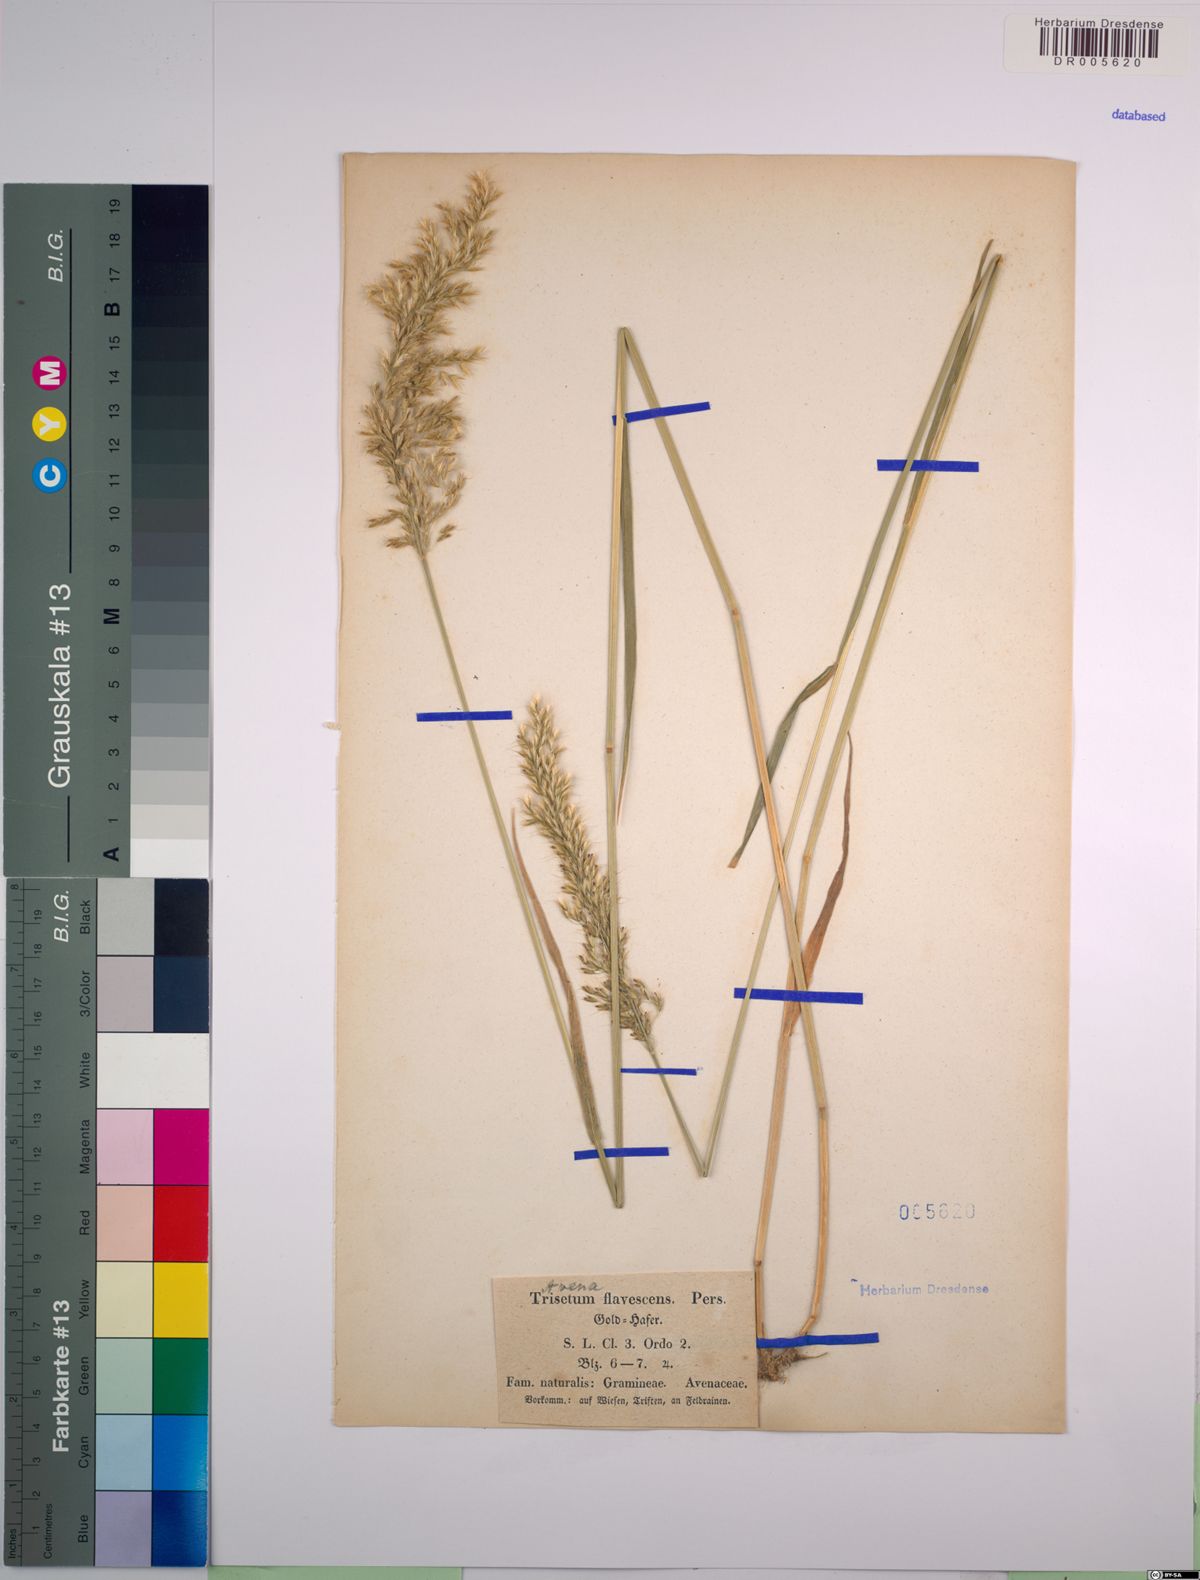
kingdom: Plantae
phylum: Tracheophyta
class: Liliopsida
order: Poales
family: Poaceae
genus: Trisetum
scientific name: Trisetum flavescens
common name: Yellow oat-grass
